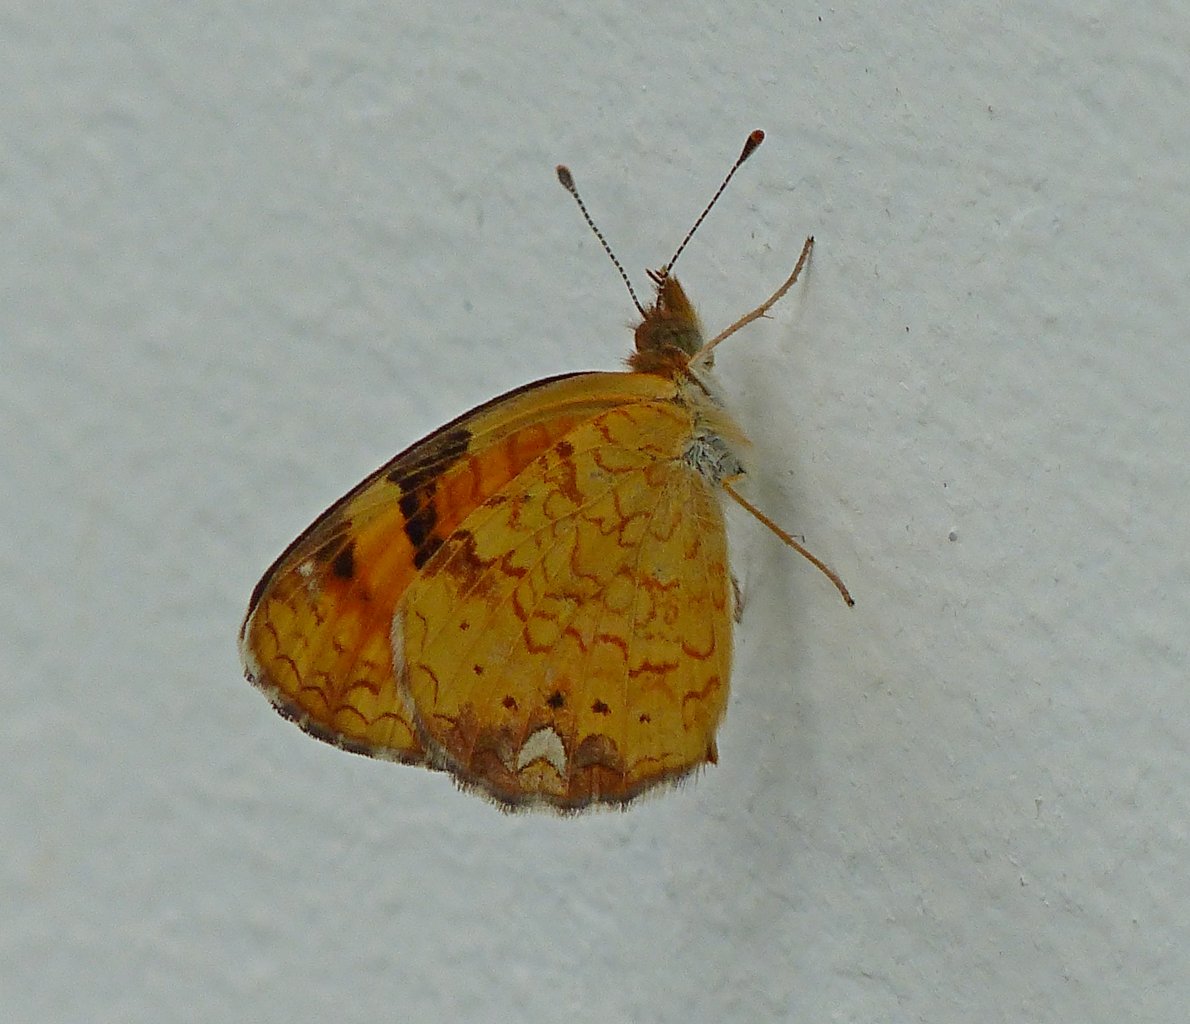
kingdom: Animalia
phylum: Arthropoda
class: Insecta
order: Lepidoptera
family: Nymphalidae
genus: Phyciodes
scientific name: Phyciodes tharos
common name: Northern Crescent
